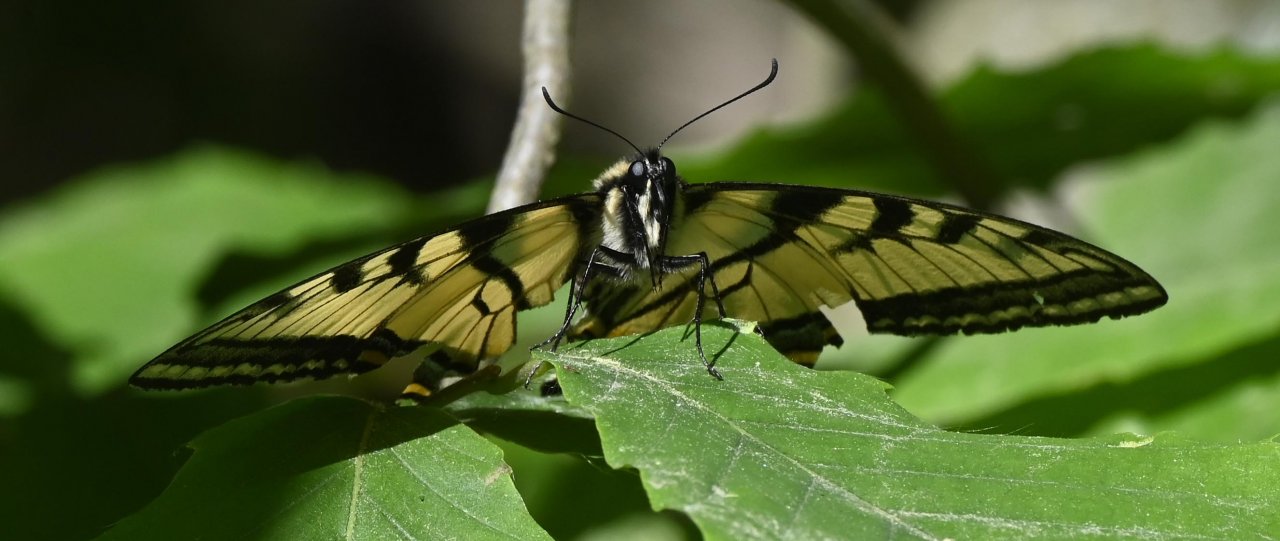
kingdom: Animalia
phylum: Arthropoda
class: Insecta
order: Lepidoptera
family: Papilionidae
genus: Pterourus
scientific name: Pterourus canadensis
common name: Canadian Tiger Swallowtail
